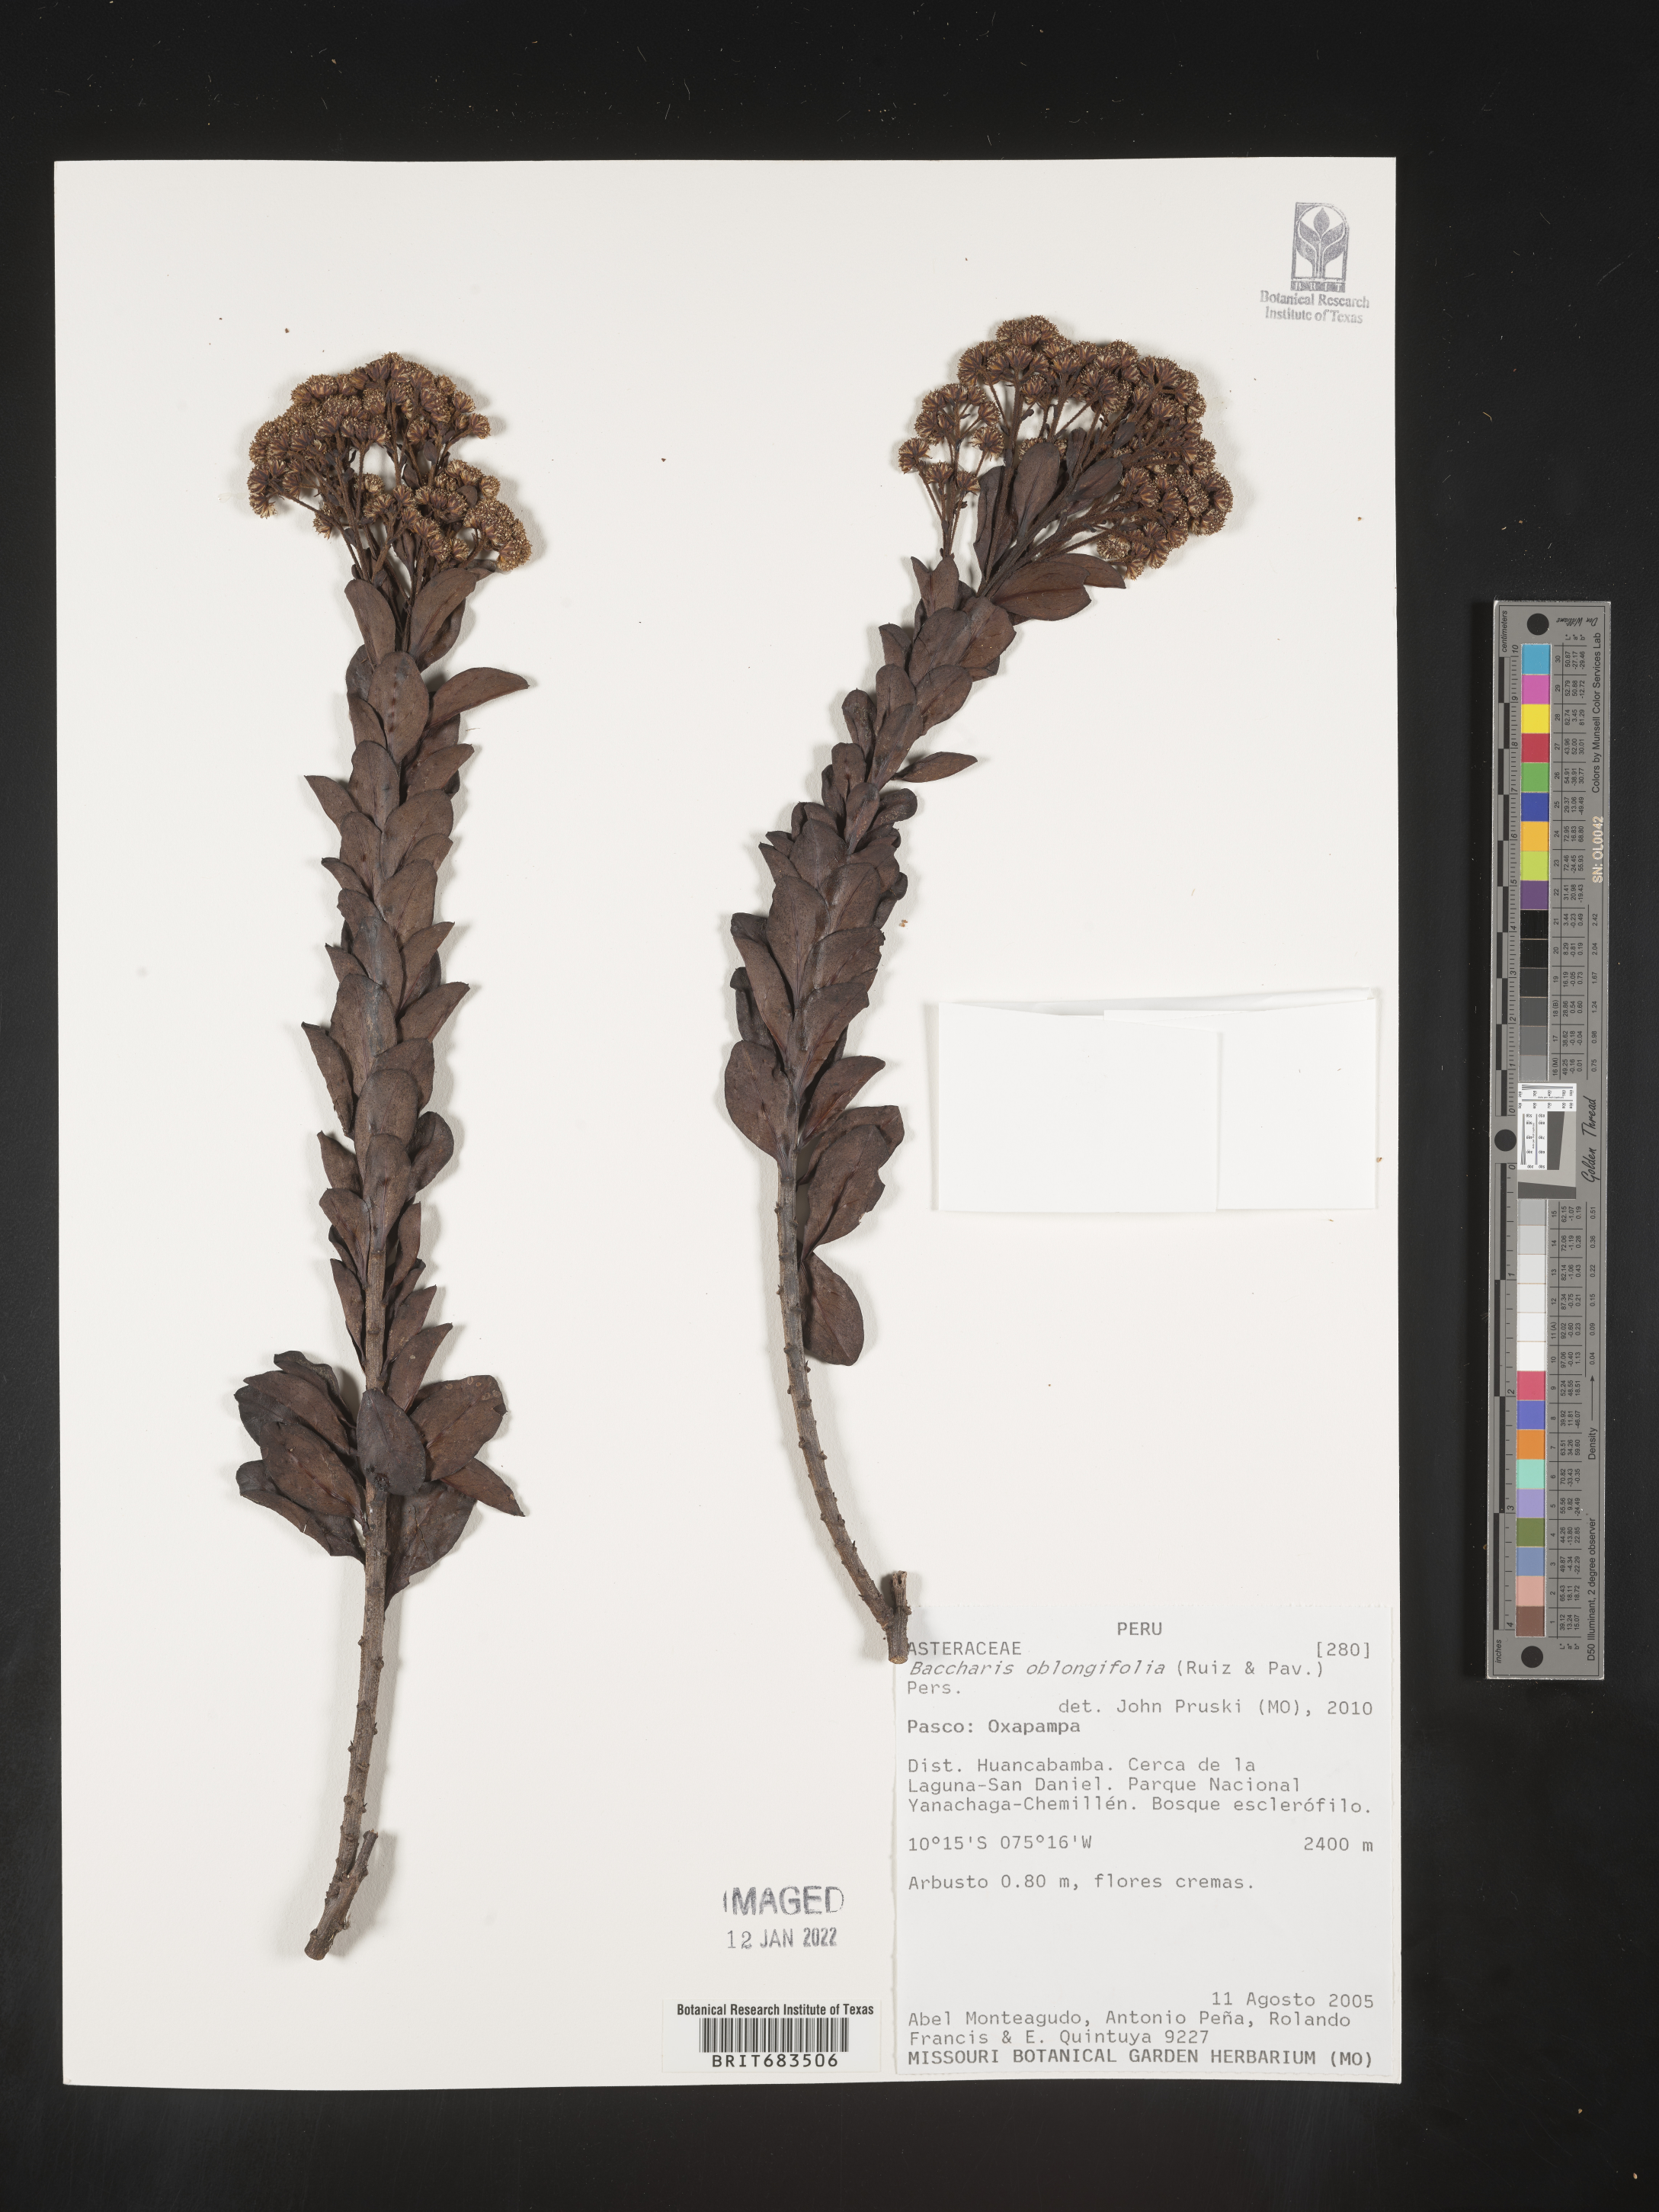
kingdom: Plantae
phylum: Tracheophyta
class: Magnoliopsida
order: Asterales
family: Asteraceae
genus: Baccharis
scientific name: Baccharis
